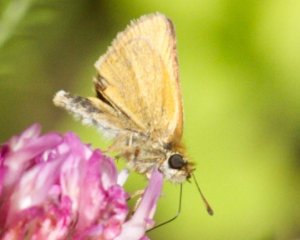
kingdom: Animalia
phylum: Arthropoda
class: Insecta
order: Lepidoptera
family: Hesperiidae
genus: Ancyloxypha
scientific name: Ancyloxypha numitor
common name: Least Skipper
